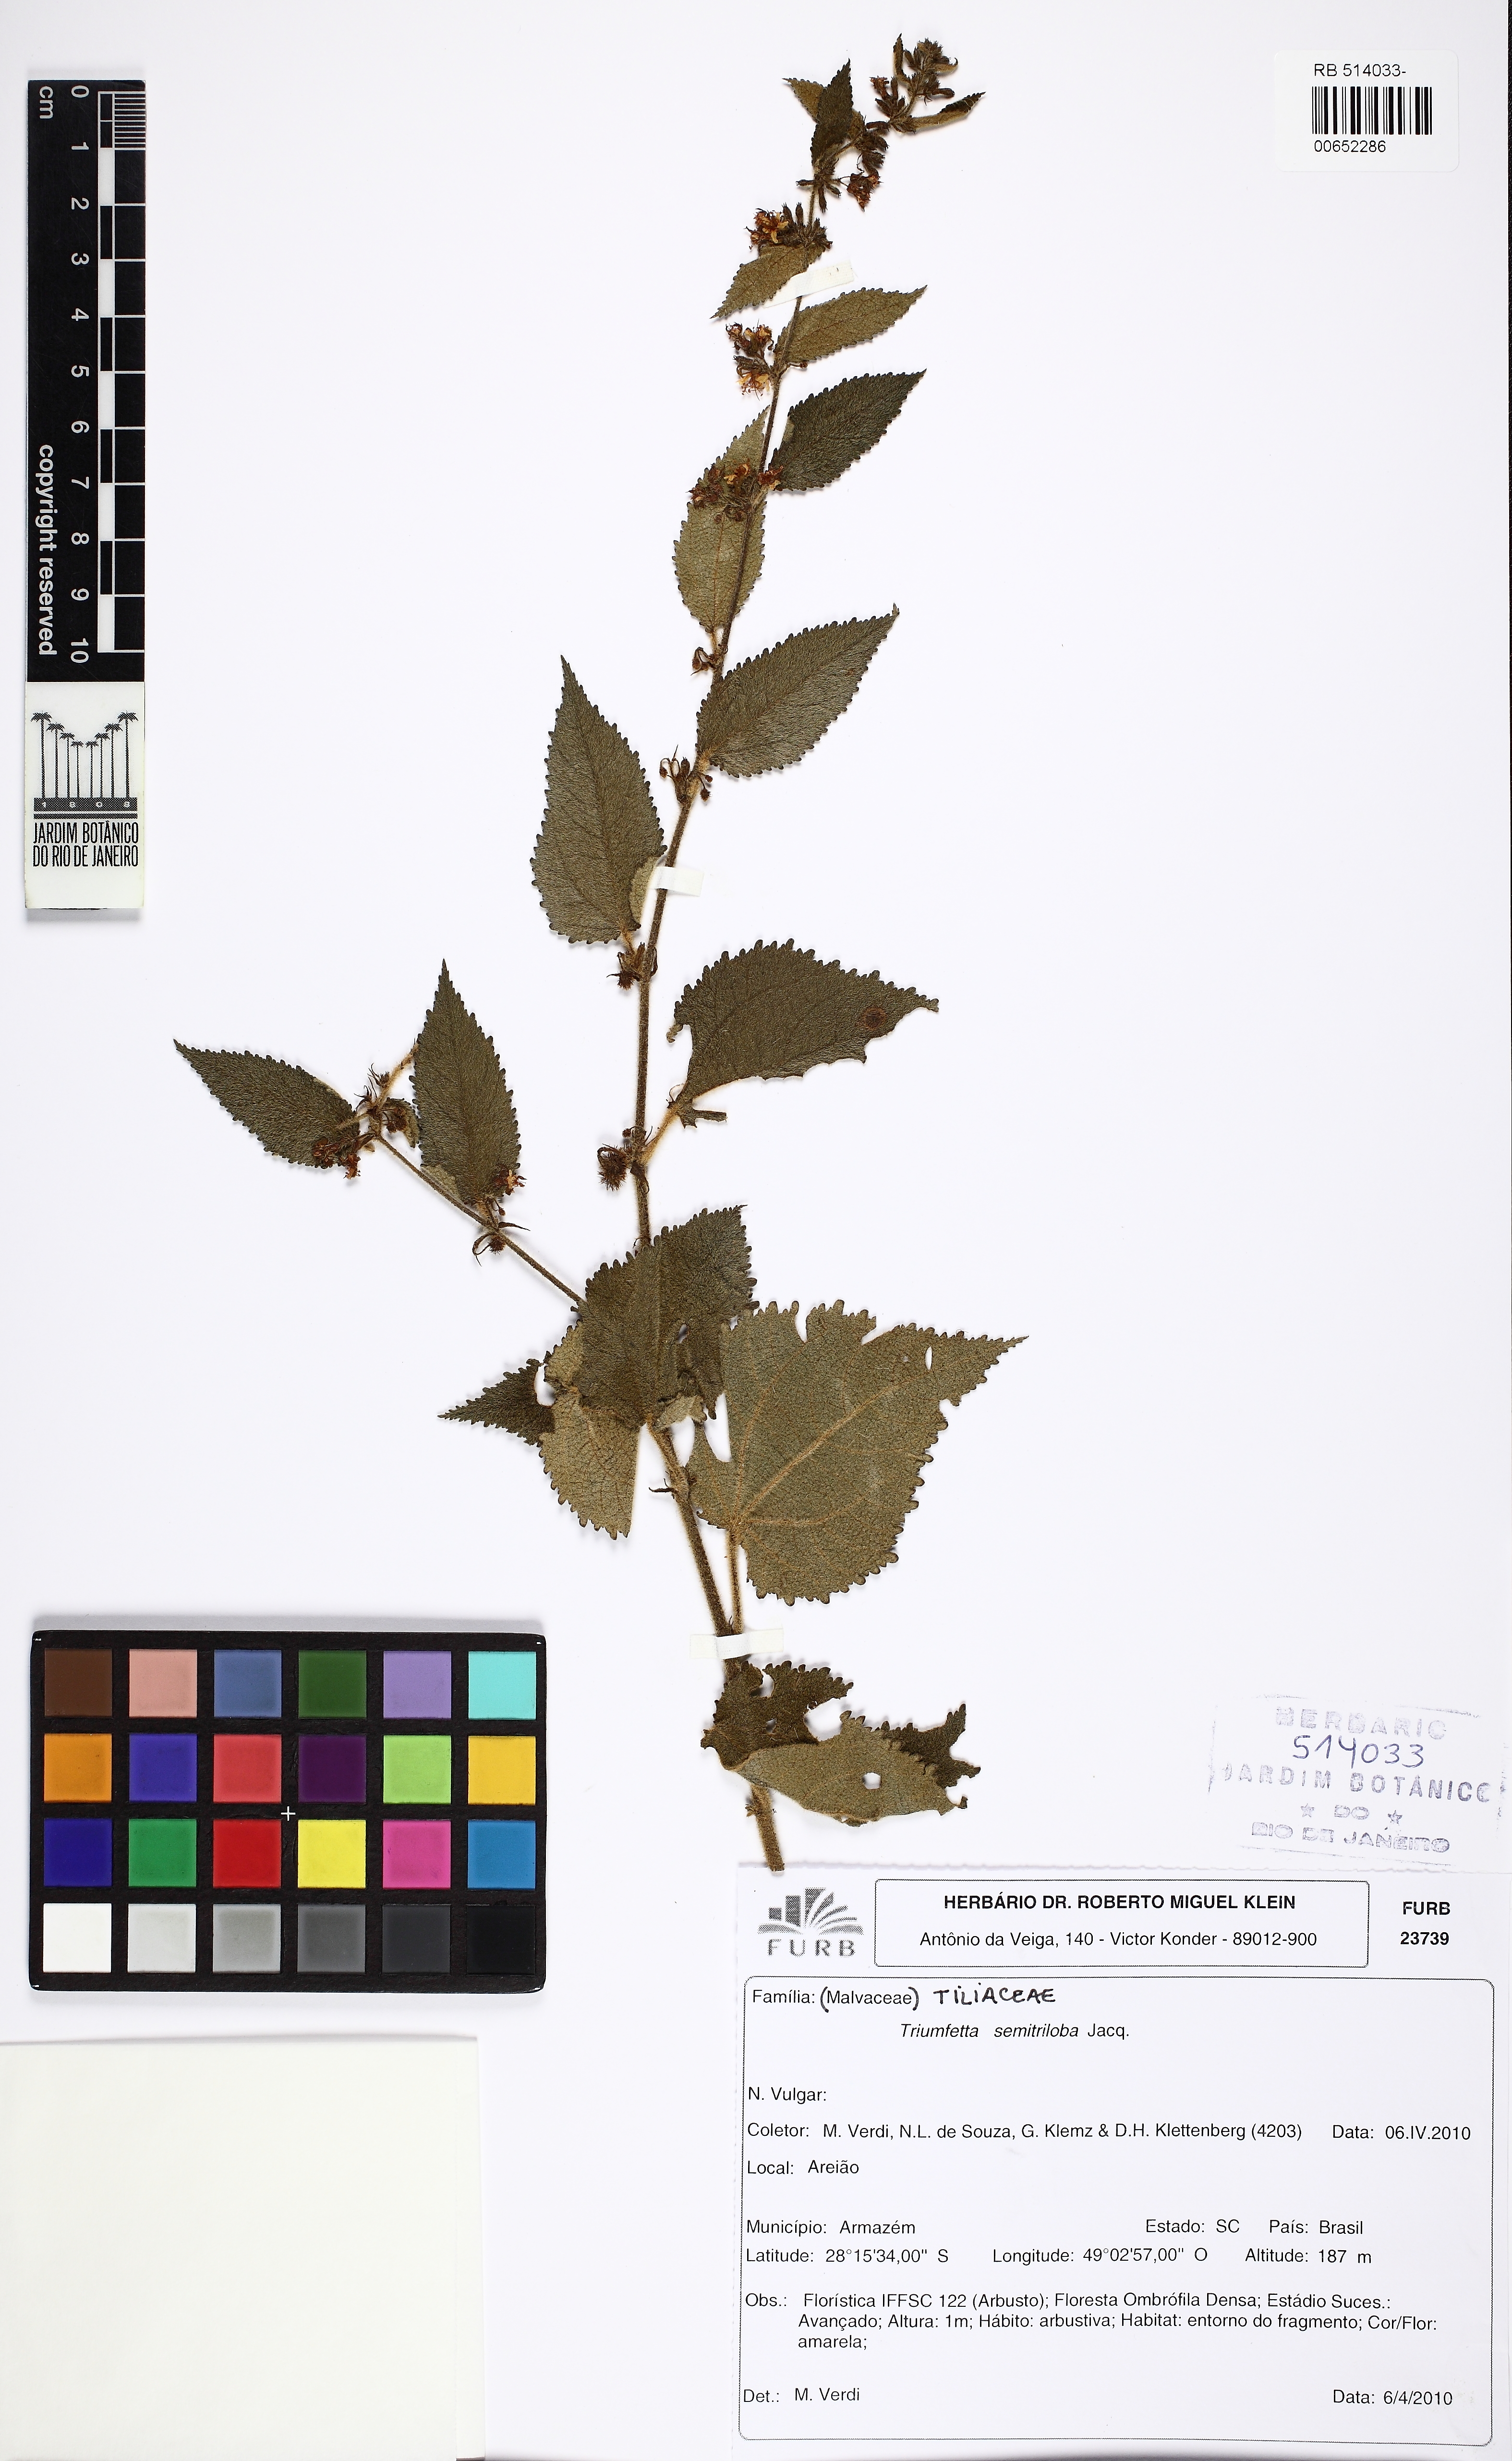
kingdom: Plantae
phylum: Tracheophyta
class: Magnoliopsida
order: Malvales
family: Malvaceae
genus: Triumfetta
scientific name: Triumfetta semitriloba
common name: Sacramento burbark
